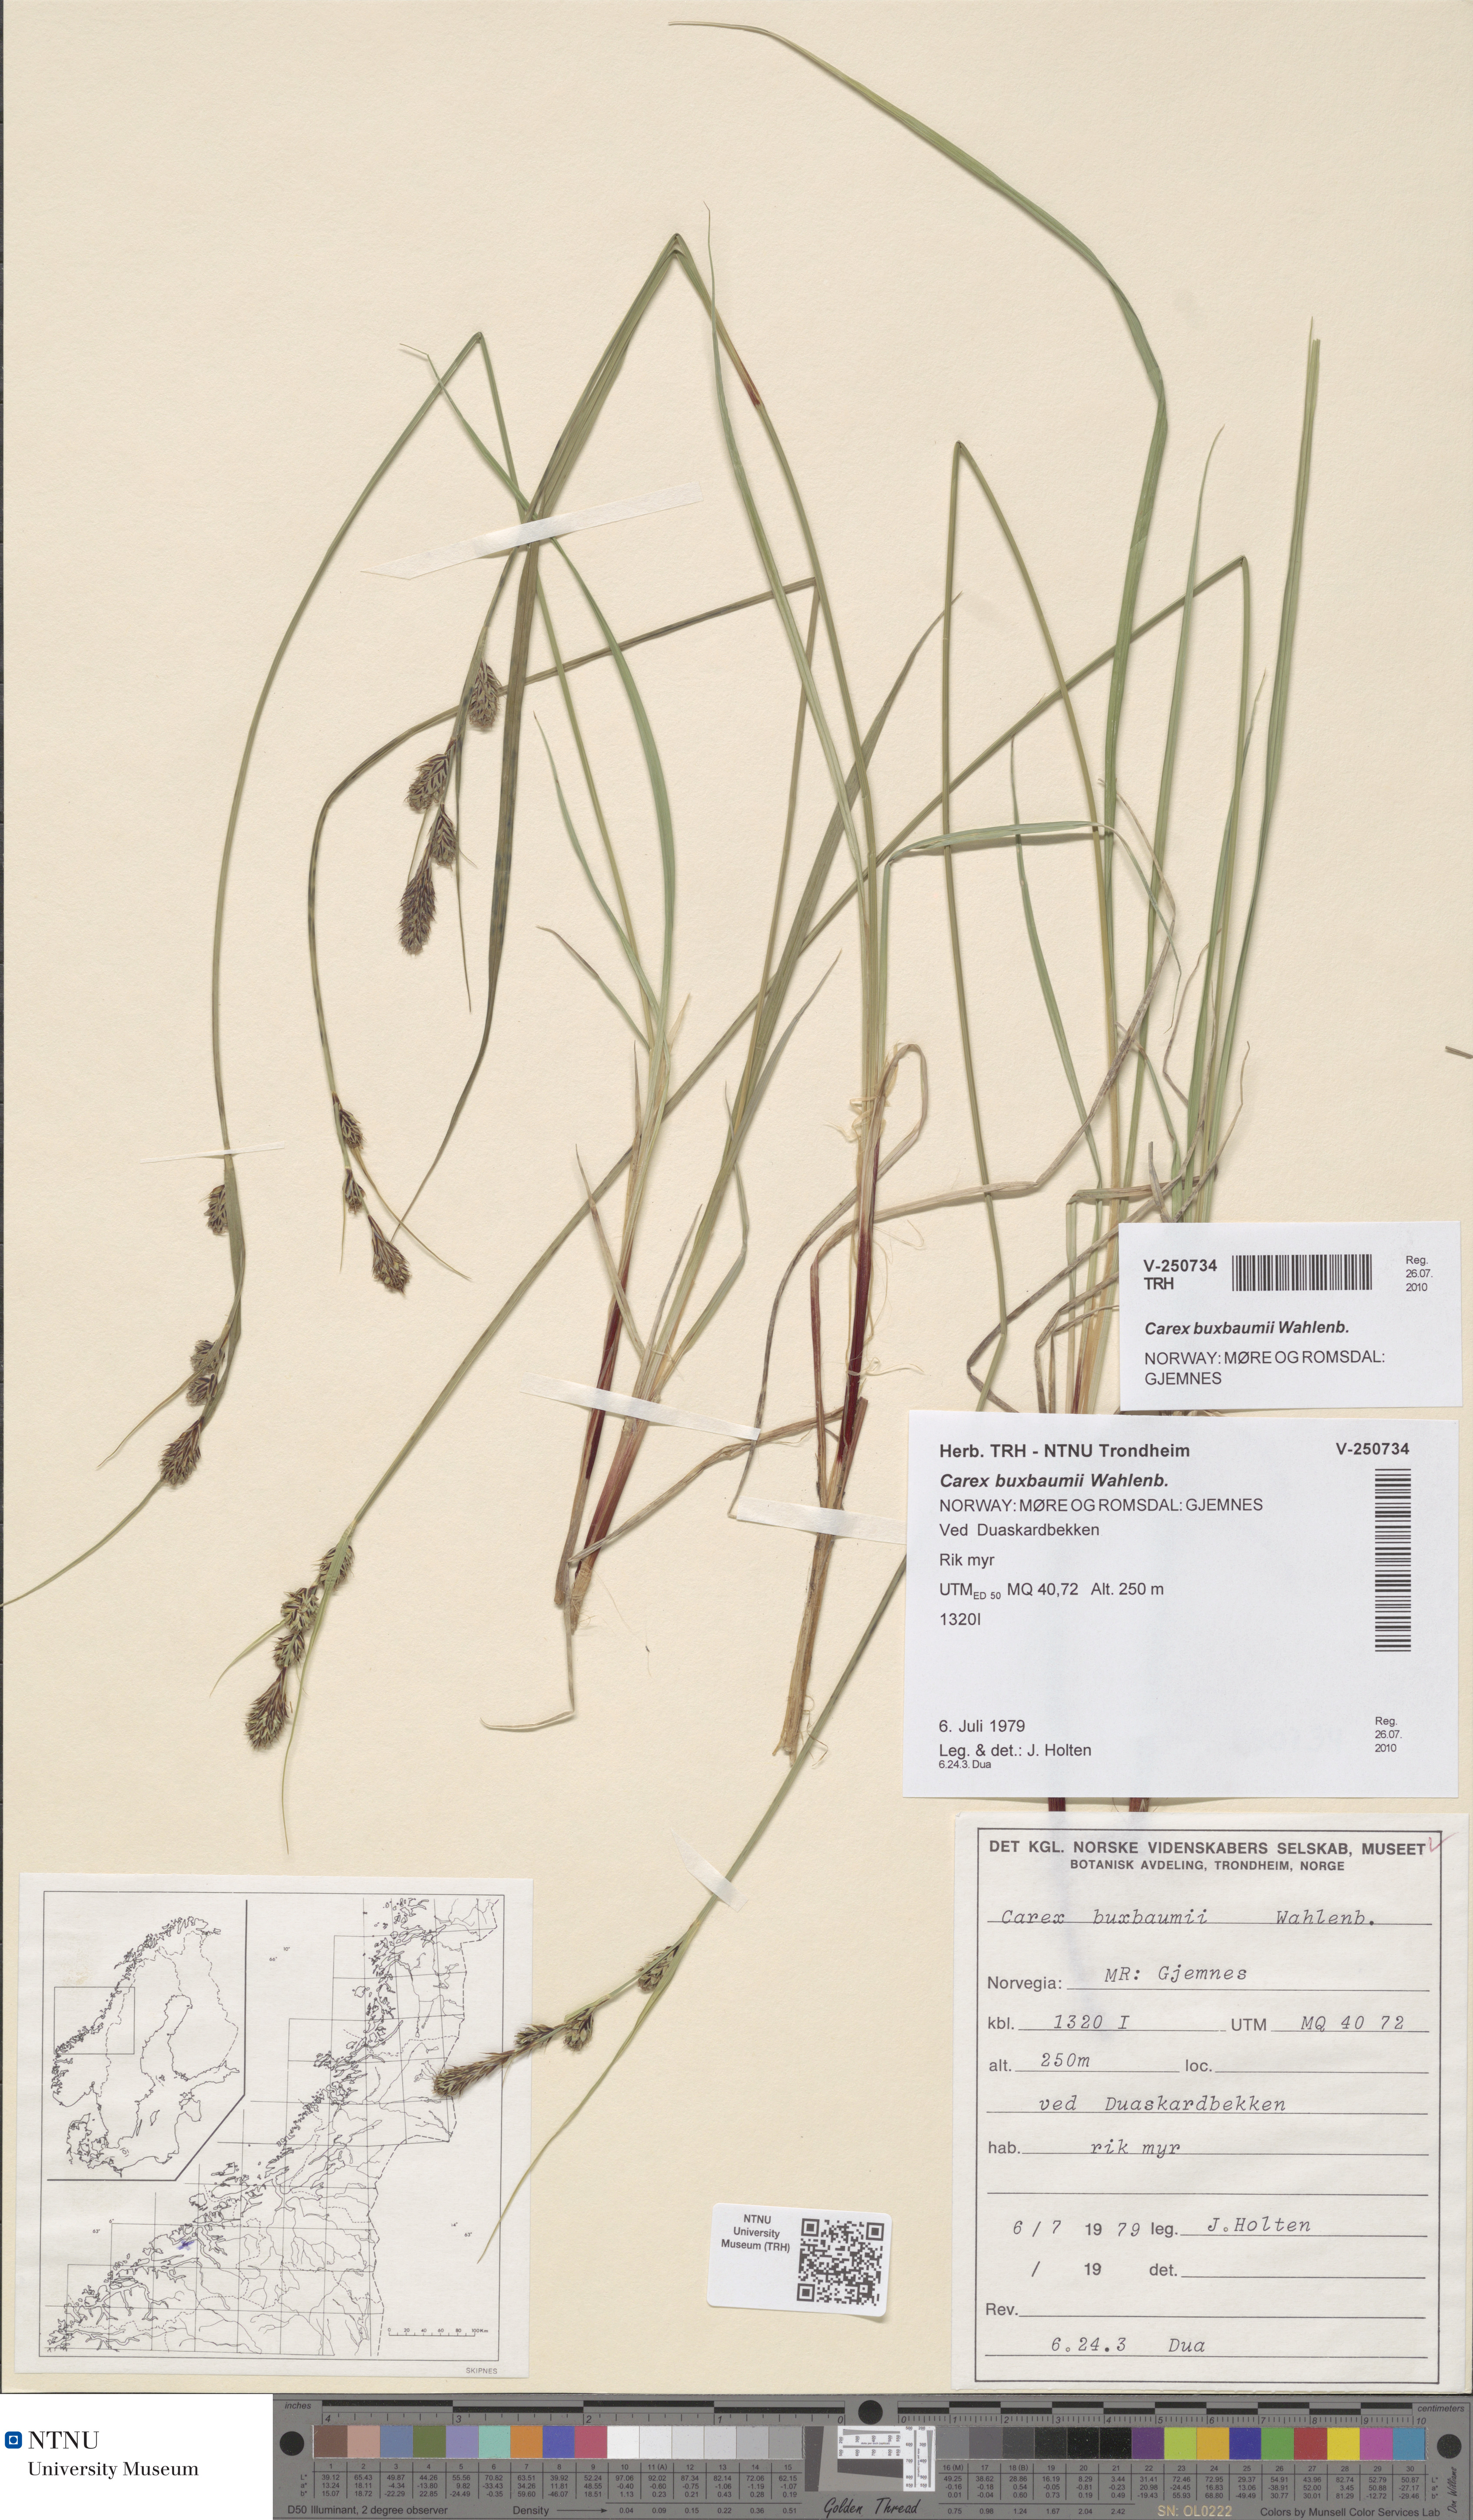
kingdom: Plantae
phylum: Tracheophyta
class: Liliopsida
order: Poales
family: Cyperaceae
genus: Carex
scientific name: Carex buxbaumii
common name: Club sedge
